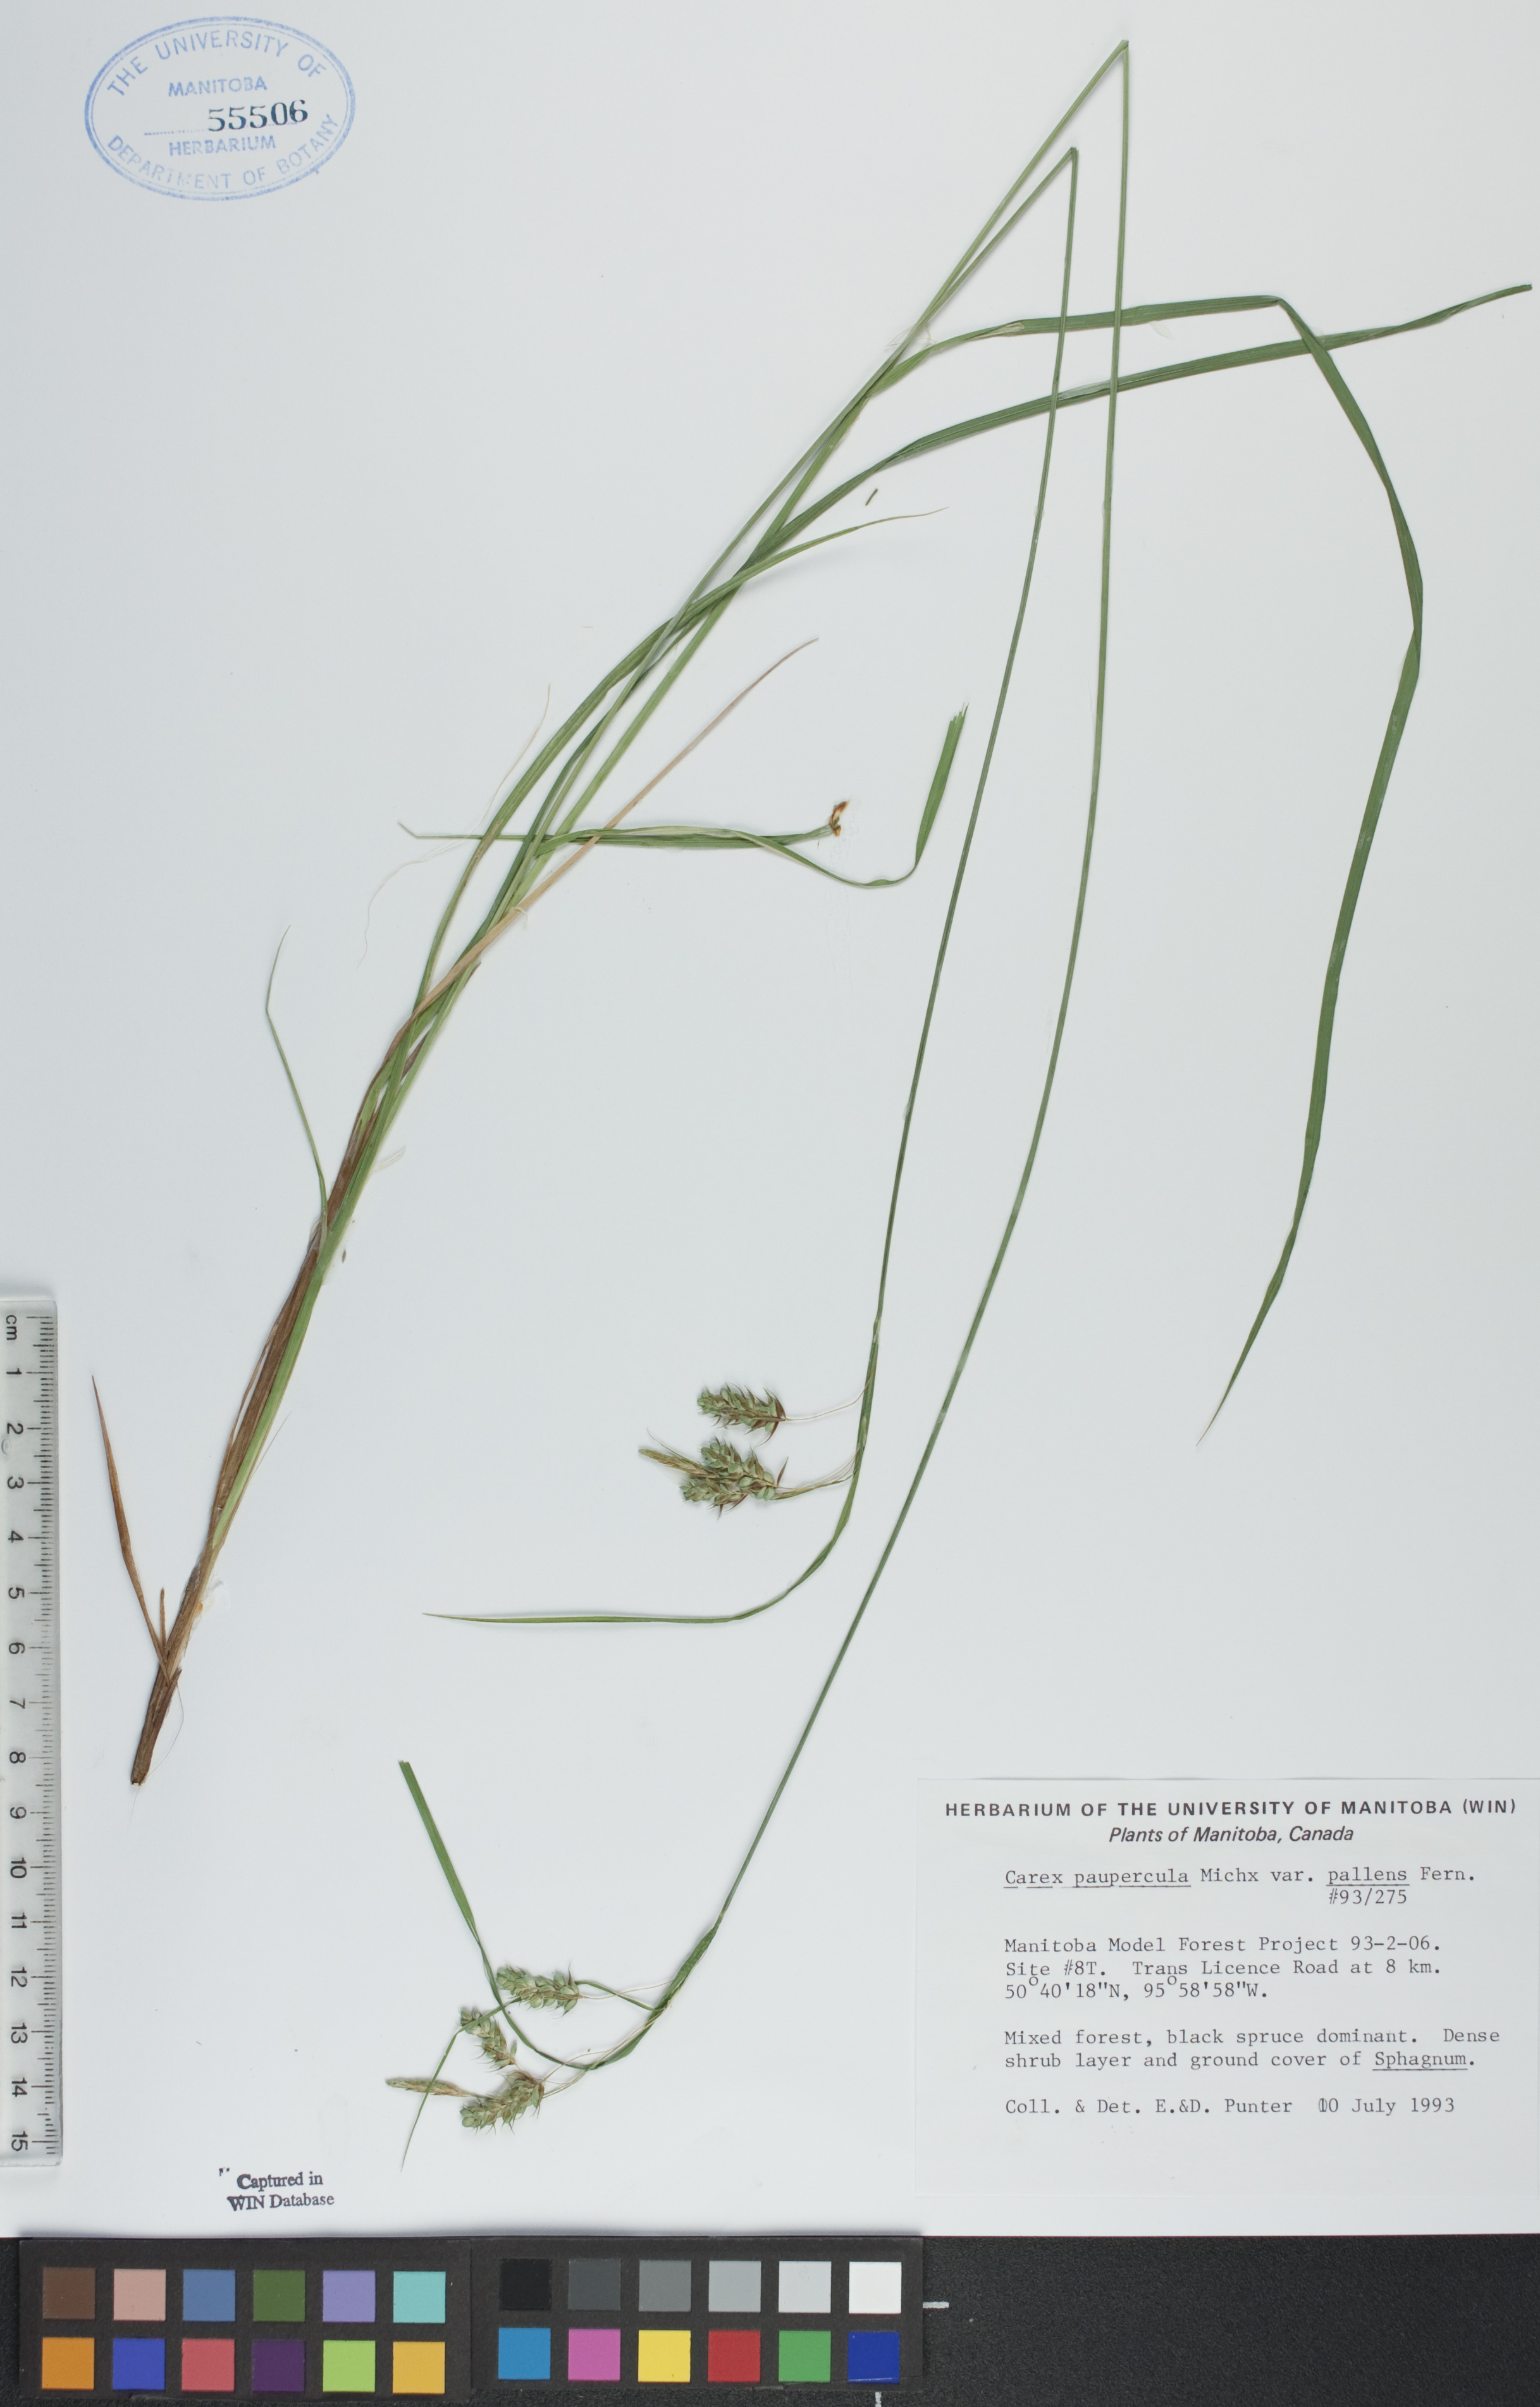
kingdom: Plantae
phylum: Tracheophyta
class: Liliopsida
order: Poales
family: Cyperaceae
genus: Carex
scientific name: Carex magellanica
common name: Bog sedge
